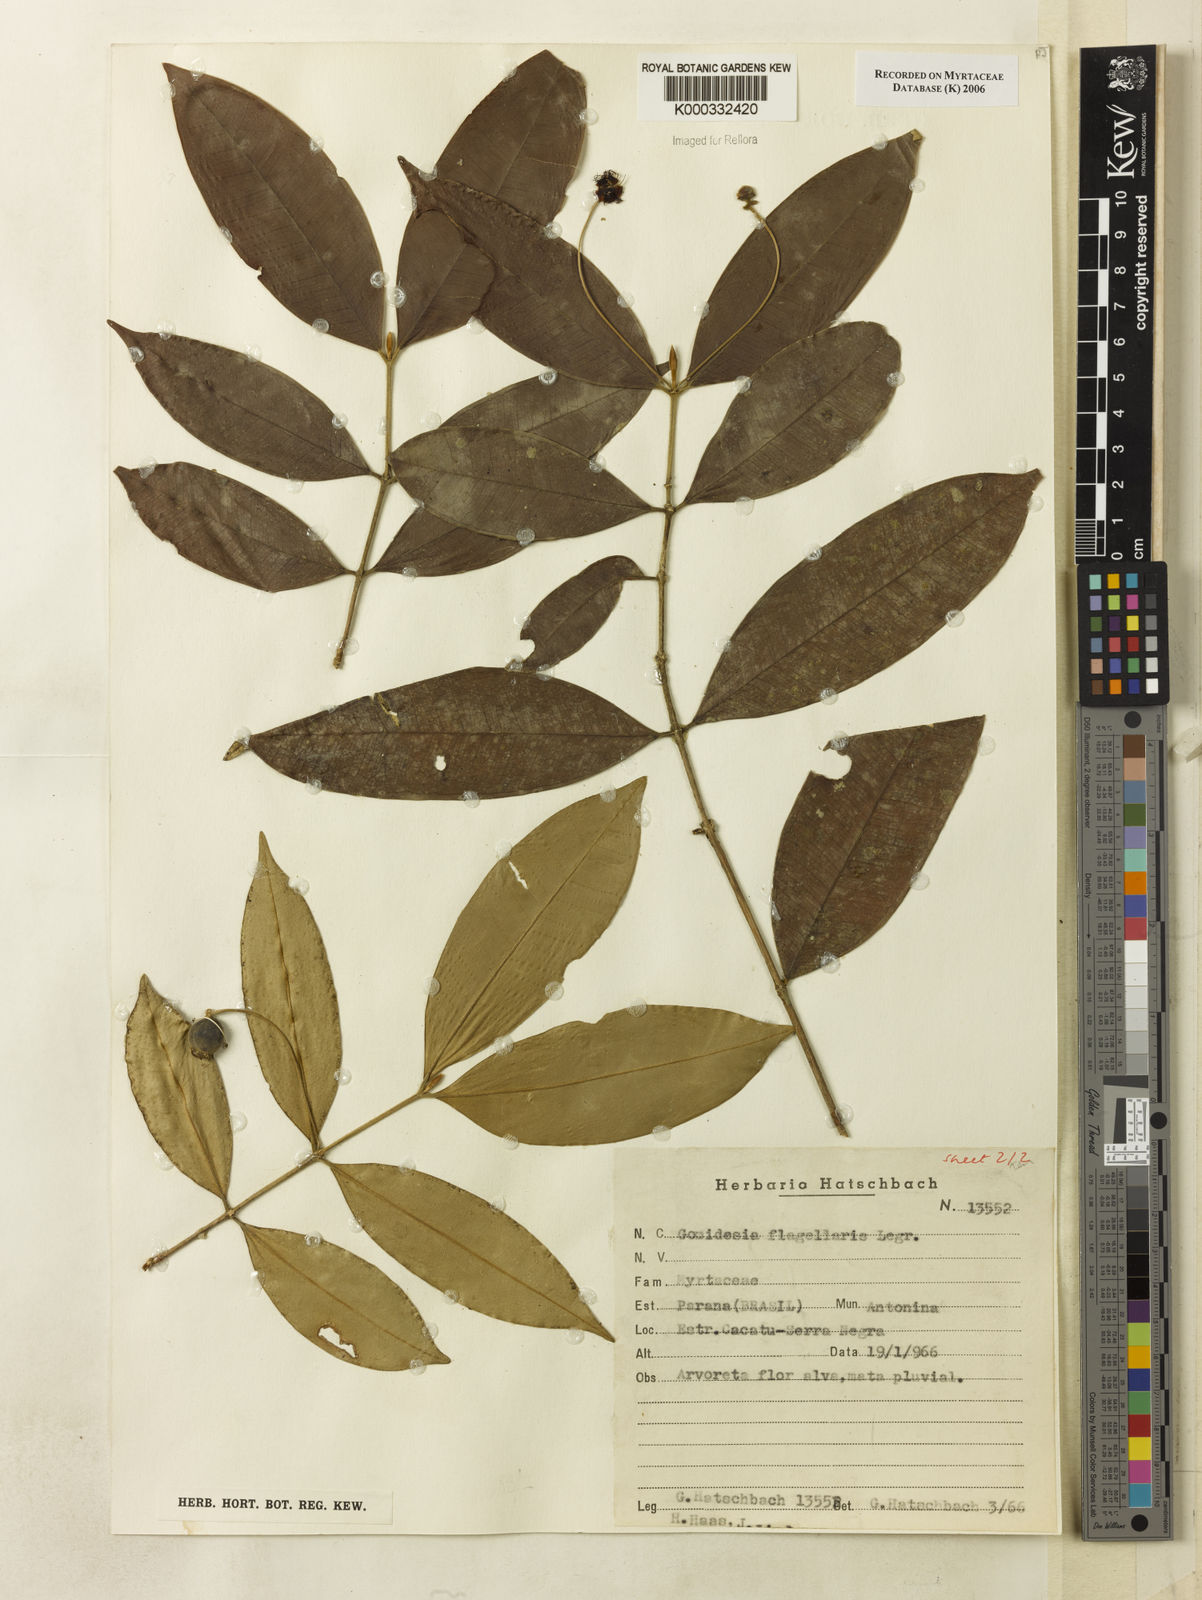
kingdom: Plantae
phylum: Tracheophyta
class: Magnoliopsida
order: Myrtales
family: Myrtaceae
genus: Myrcia
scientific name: Myrcia flagellaris
